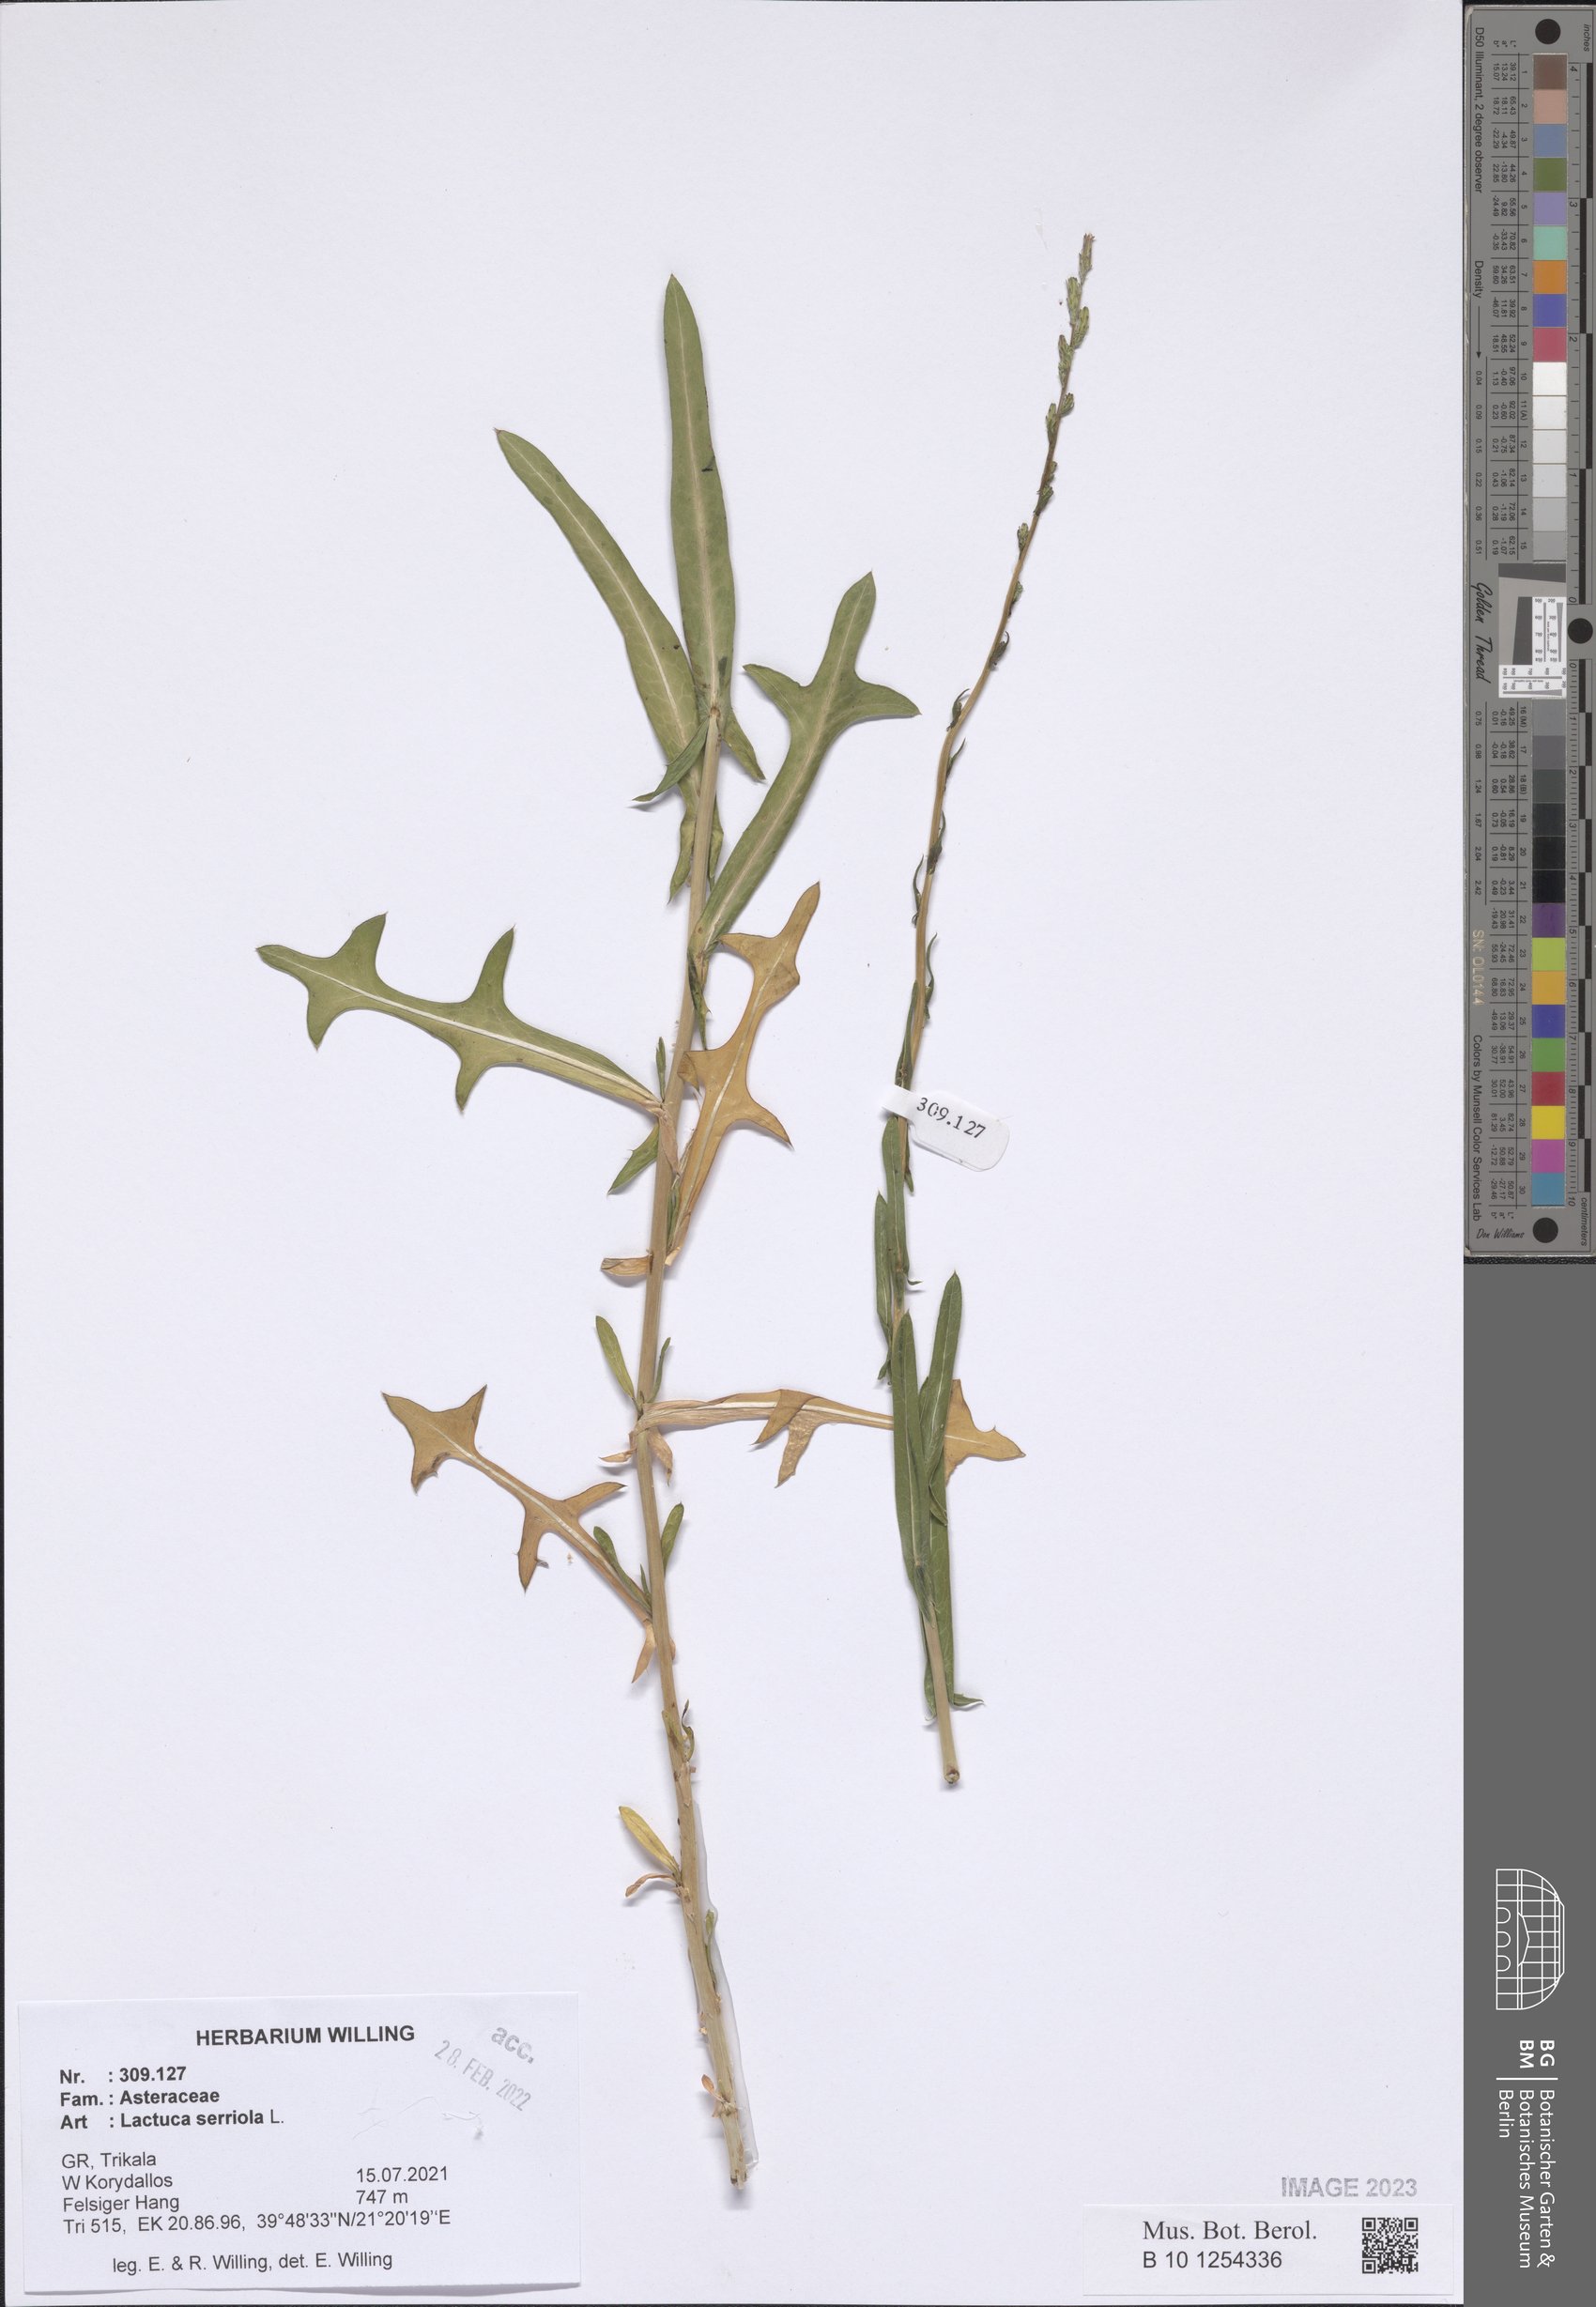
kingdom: Plantae
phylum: Tracheophyta
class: Magnoliopsida
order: Asterales
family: Asteraceae
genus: Lactuca
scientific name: Lactuca serriola
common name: Prickly lettuce
